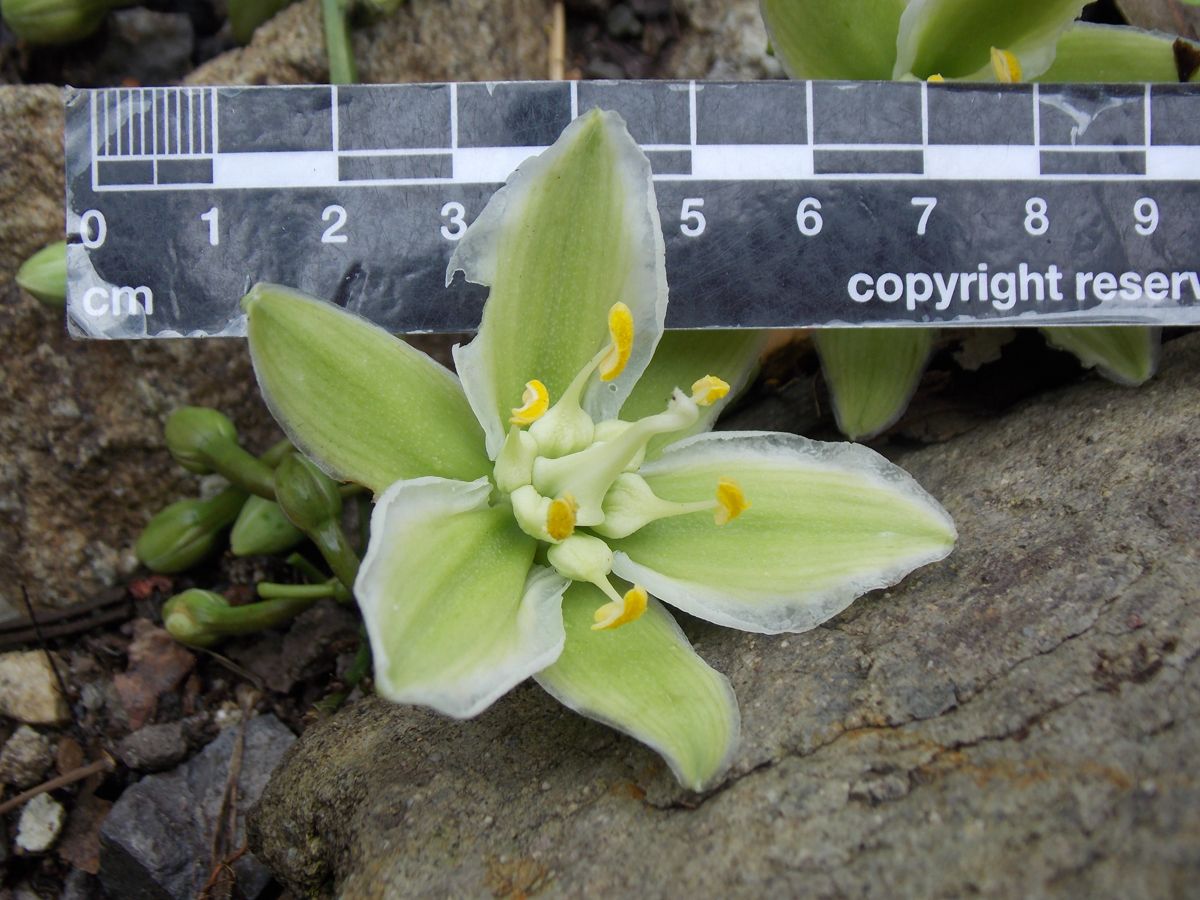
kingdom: Plantae
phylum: Tracheophyta
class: Liliopsida
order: Asparagales
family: Asparagaceae
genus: Furcraea
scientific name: Furcraea guatemalensis
